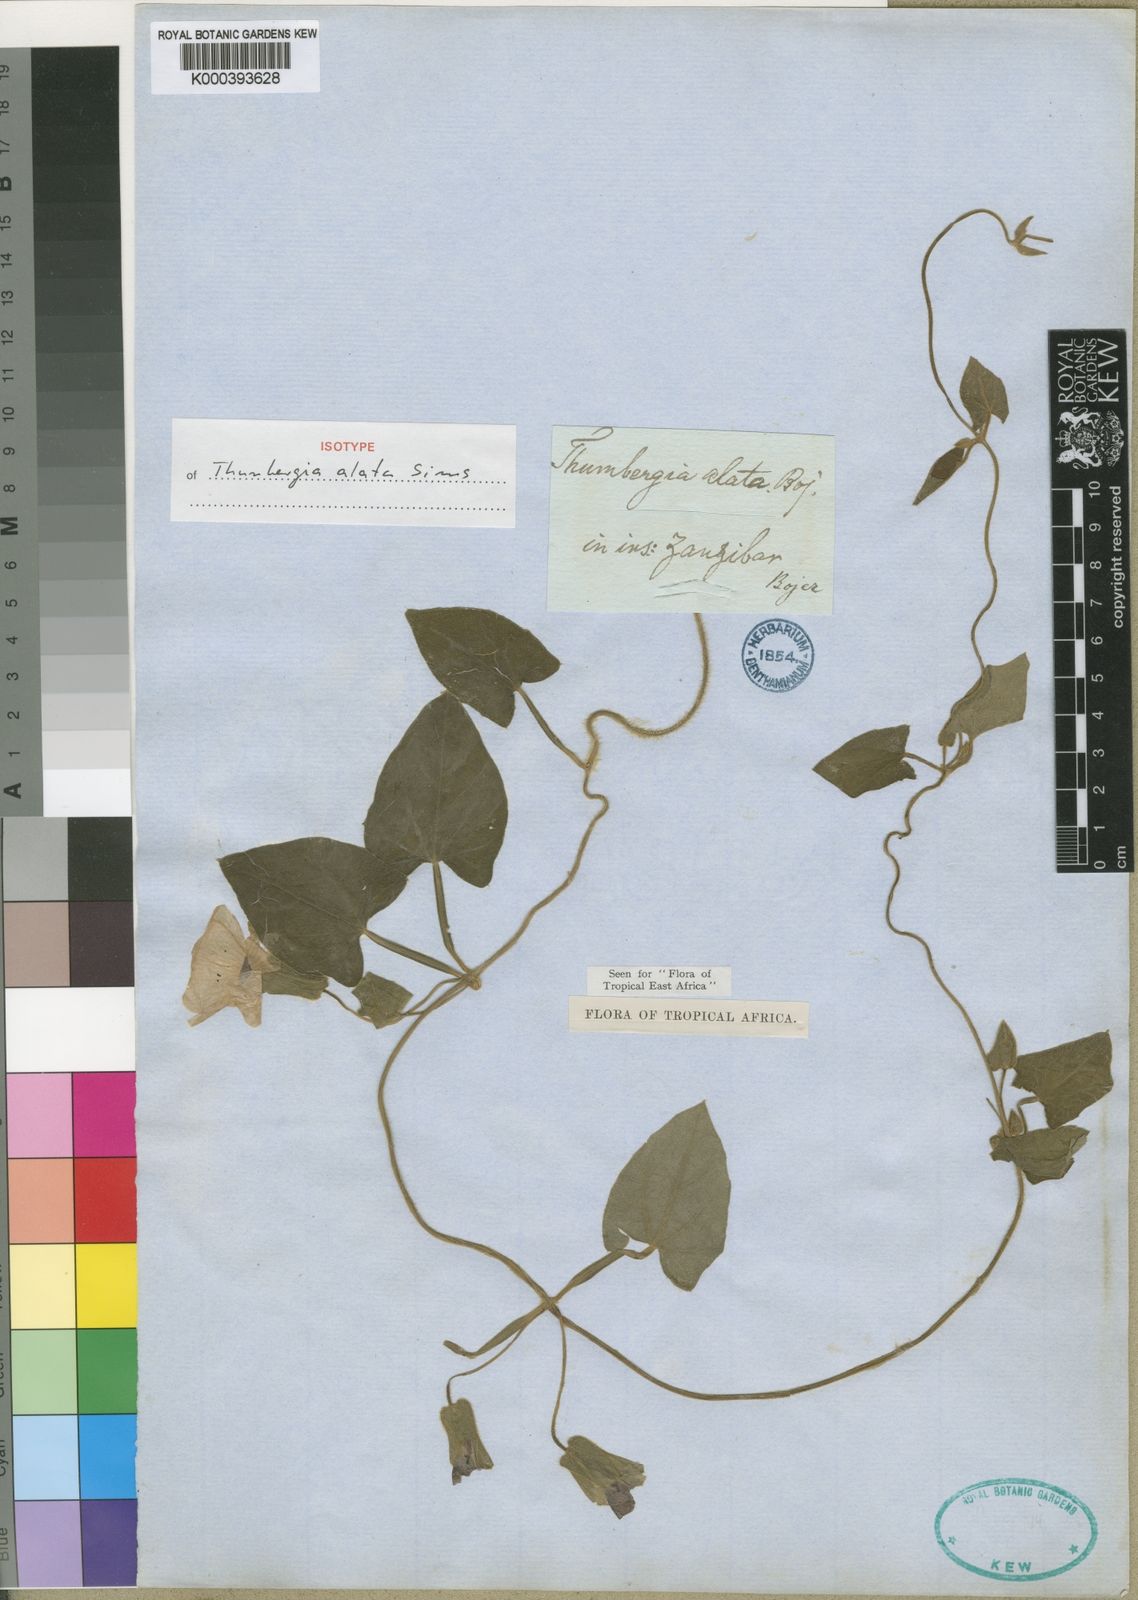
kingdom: Plantae
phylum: Tracheophyta
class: Magnoliopsida
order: Lamiales
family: Acanthaceae
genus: Thunbergia
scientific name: Thunbergia alata
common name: Blackeyed susan vine
